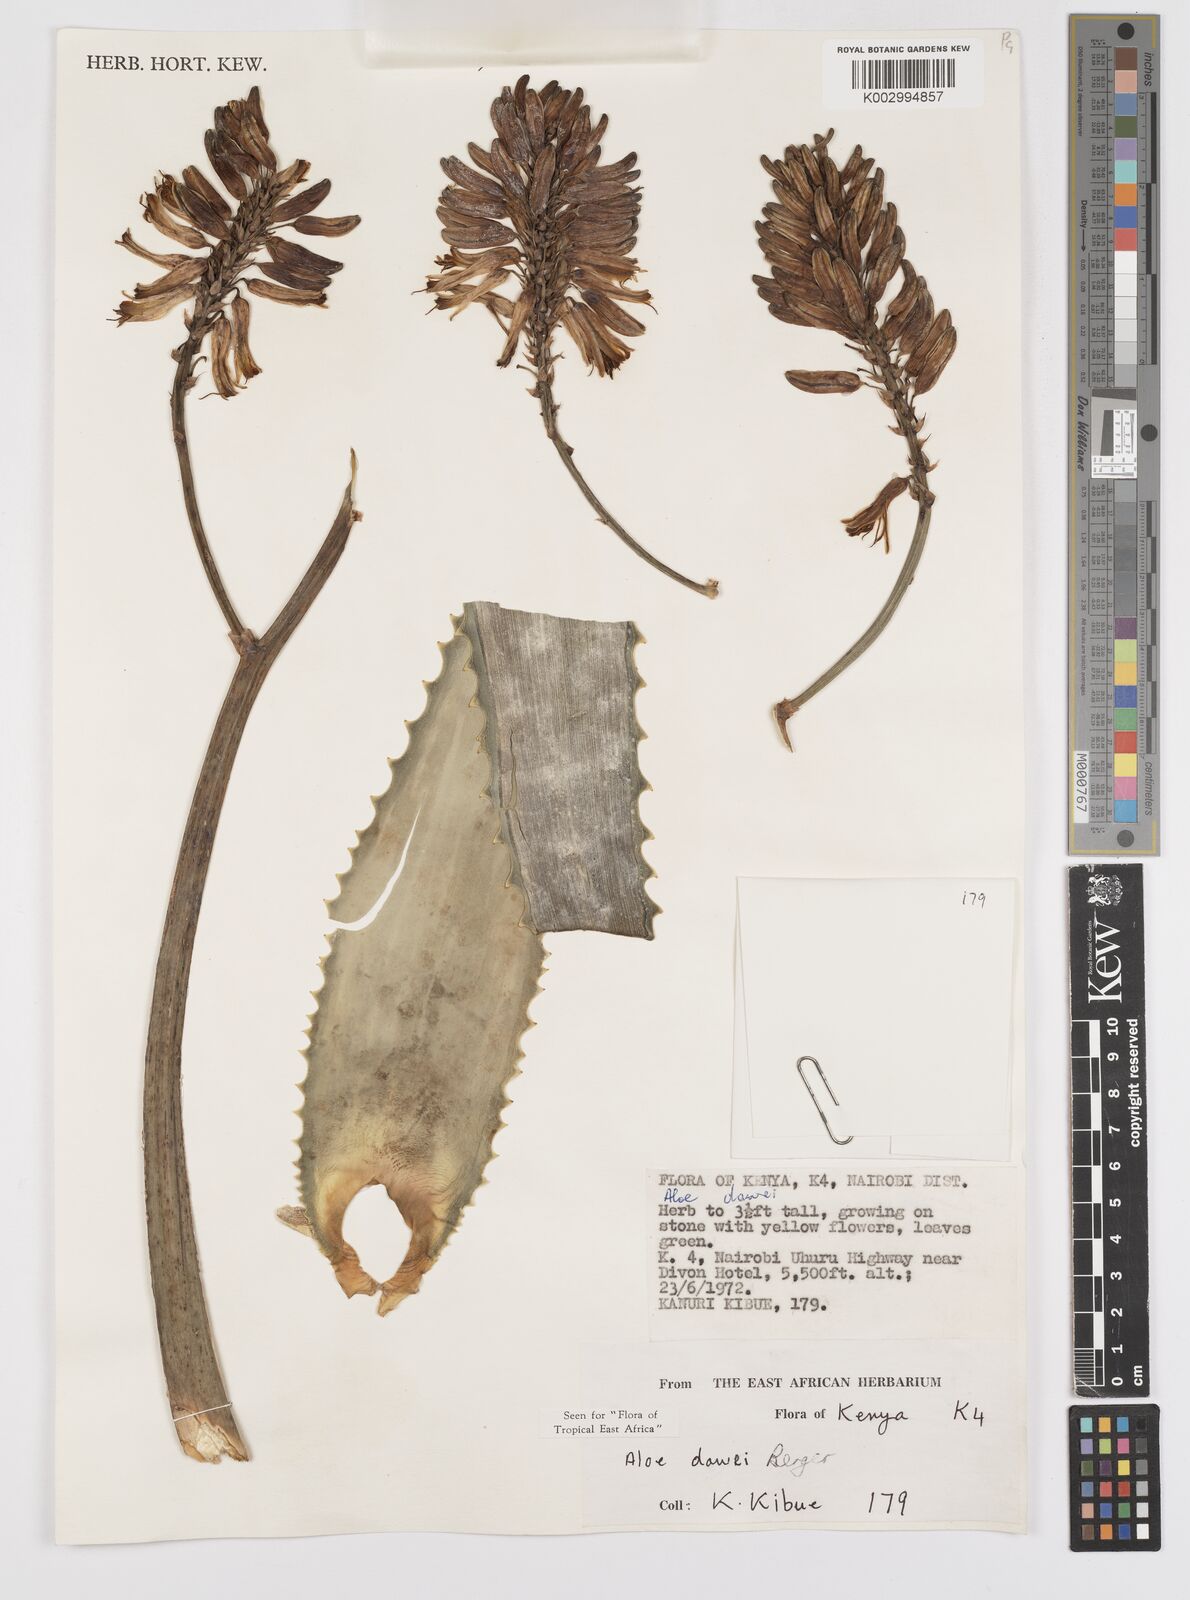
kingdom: Plantae
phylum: Tracheophyta
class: Liliopsida
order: Asparagales
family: Asphodelaceae
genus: Aloe
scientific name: Aloe
